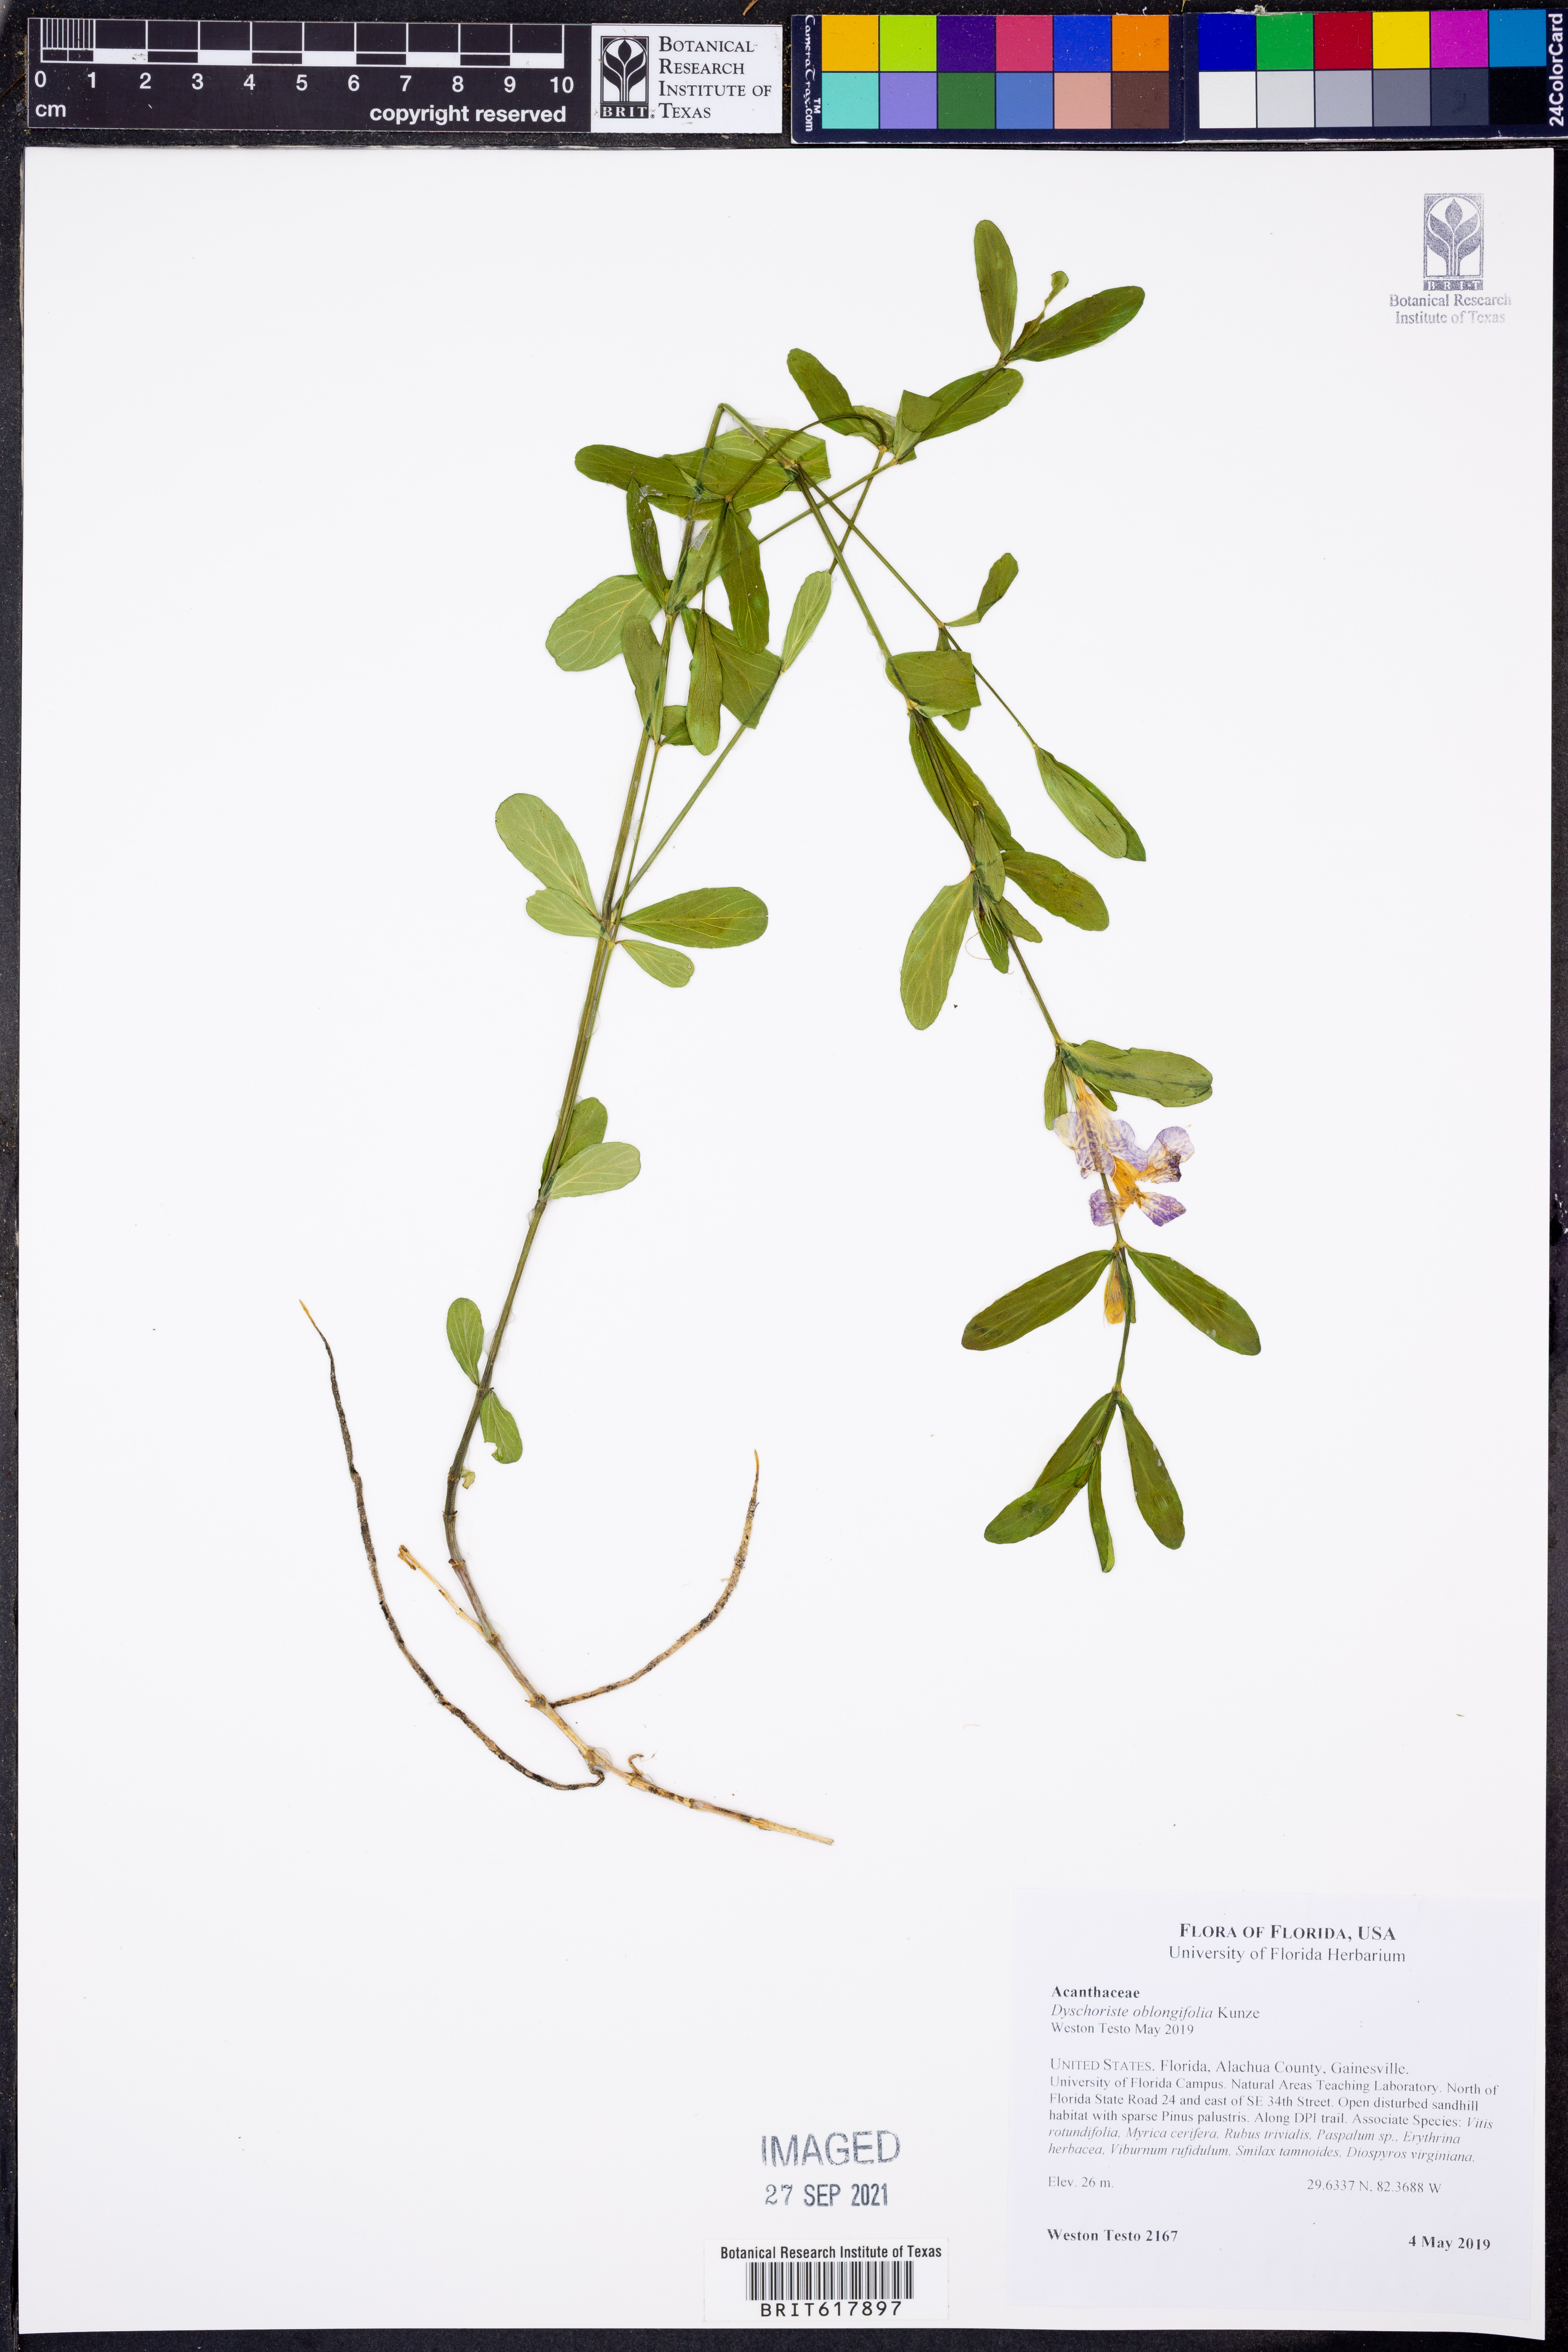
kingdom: Plantae
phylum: Tracheophyta
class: Magnoliopsida
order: Lamiales
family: Acanthaceae
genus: Dyschoriste
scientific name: Dyschoriste oblongifolia
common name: Blue twinflower
